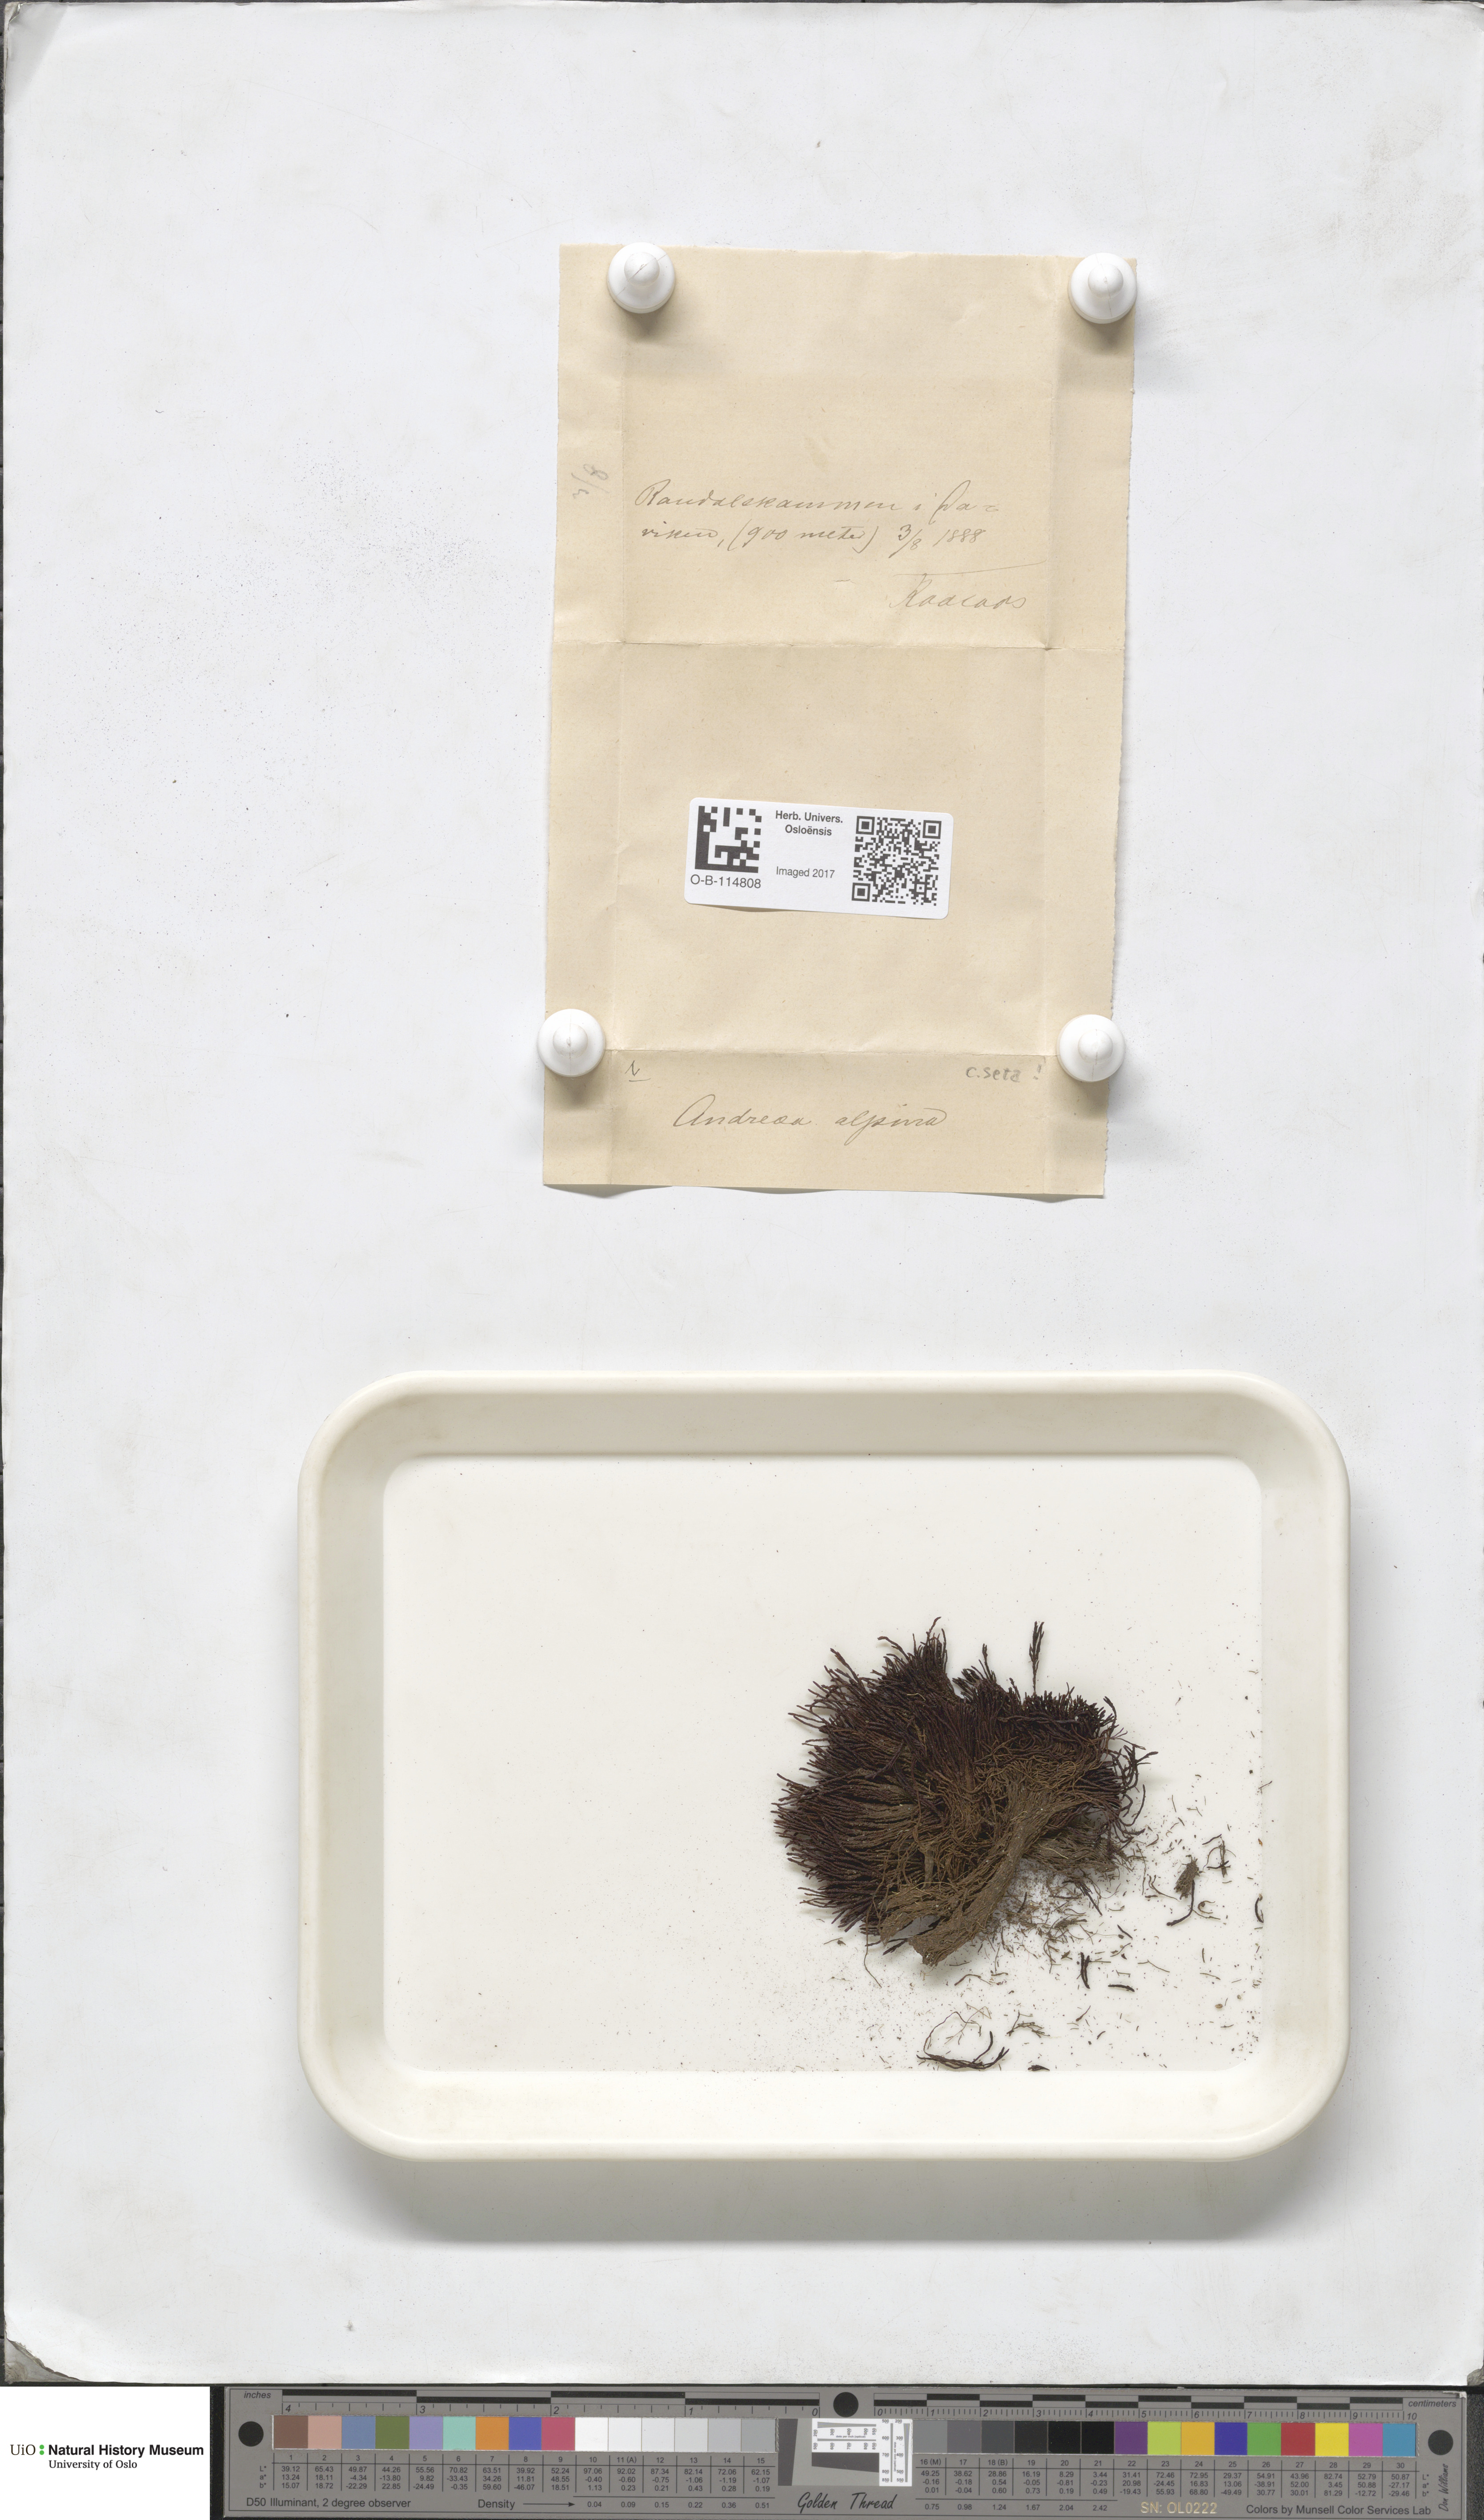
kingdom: Plantae
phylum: Bryophyta
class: Andreaeopsida
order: Andreaeales
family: Andreaeaceae
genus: Andreaea
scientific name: Andreaea hookeri
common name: Alpine rock-moss
